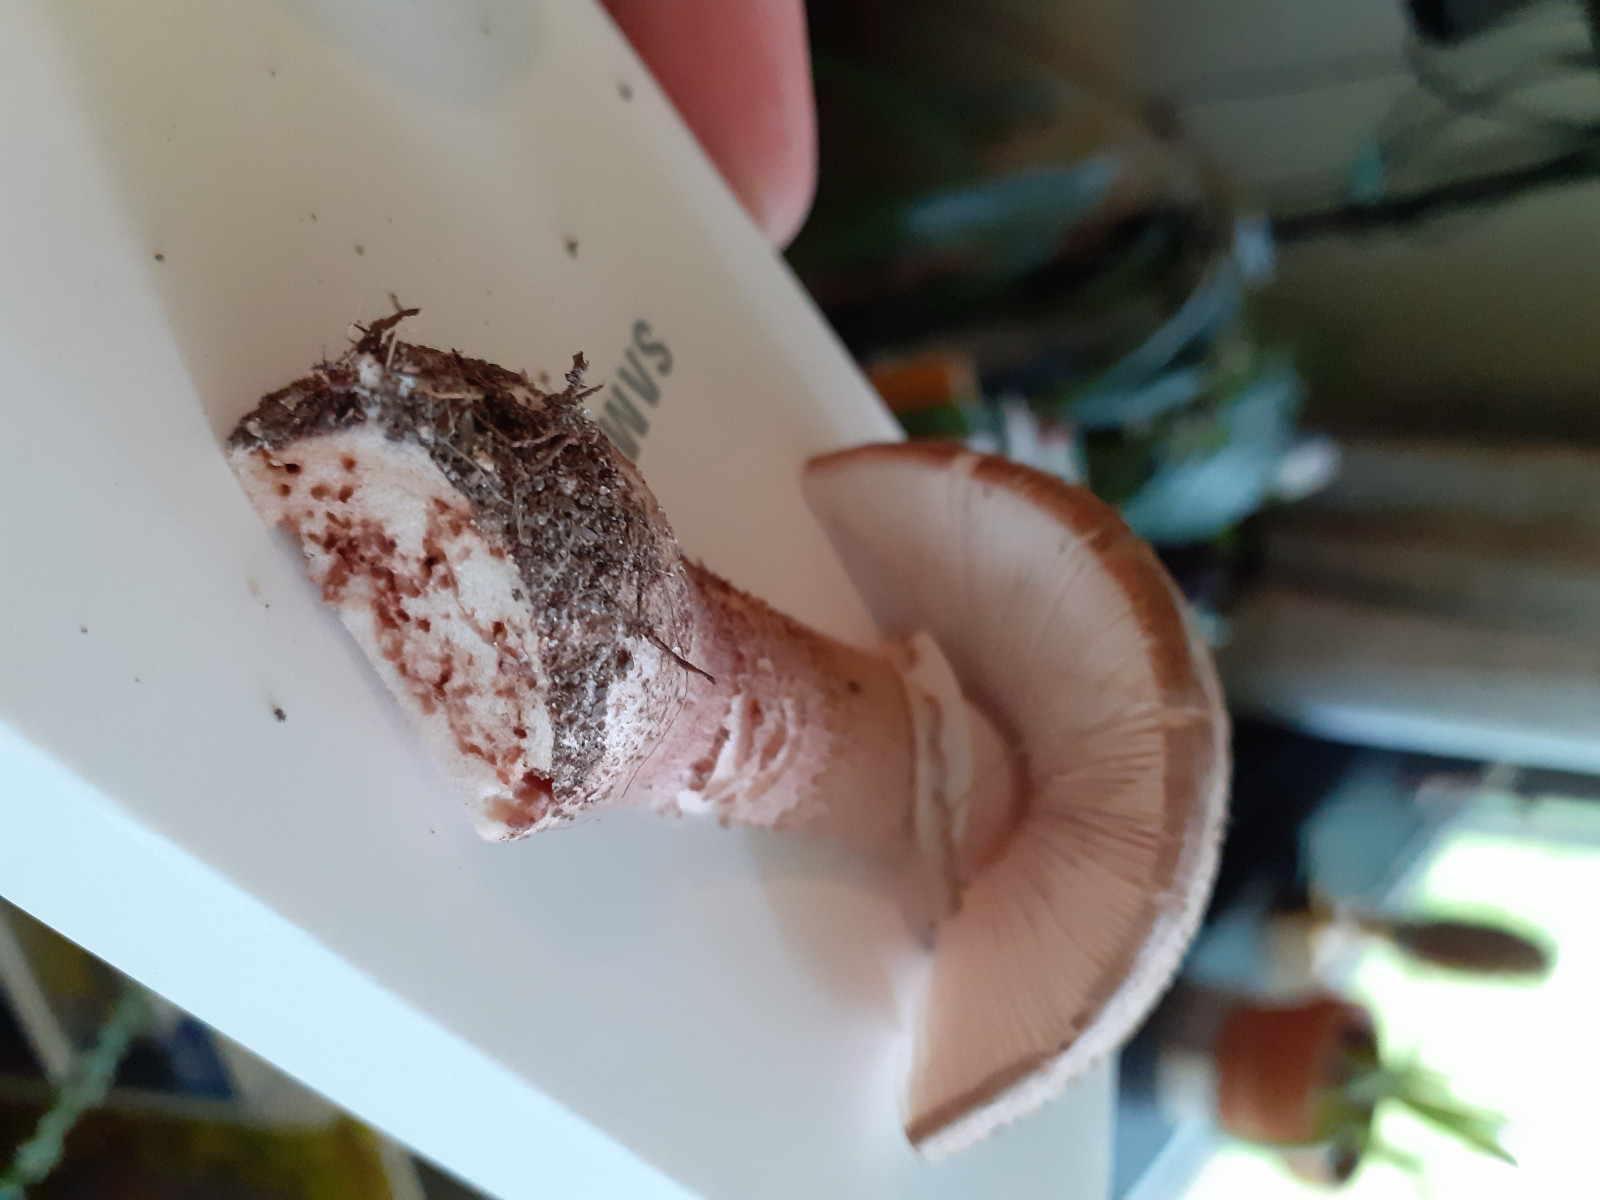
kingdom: Fungi
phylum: Basidiomycota
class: Agaricomycetes
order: Agaricales
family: Amanitaceae
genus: Amanita
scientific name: Amanita rubescens
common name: rødmende fluesvamp
